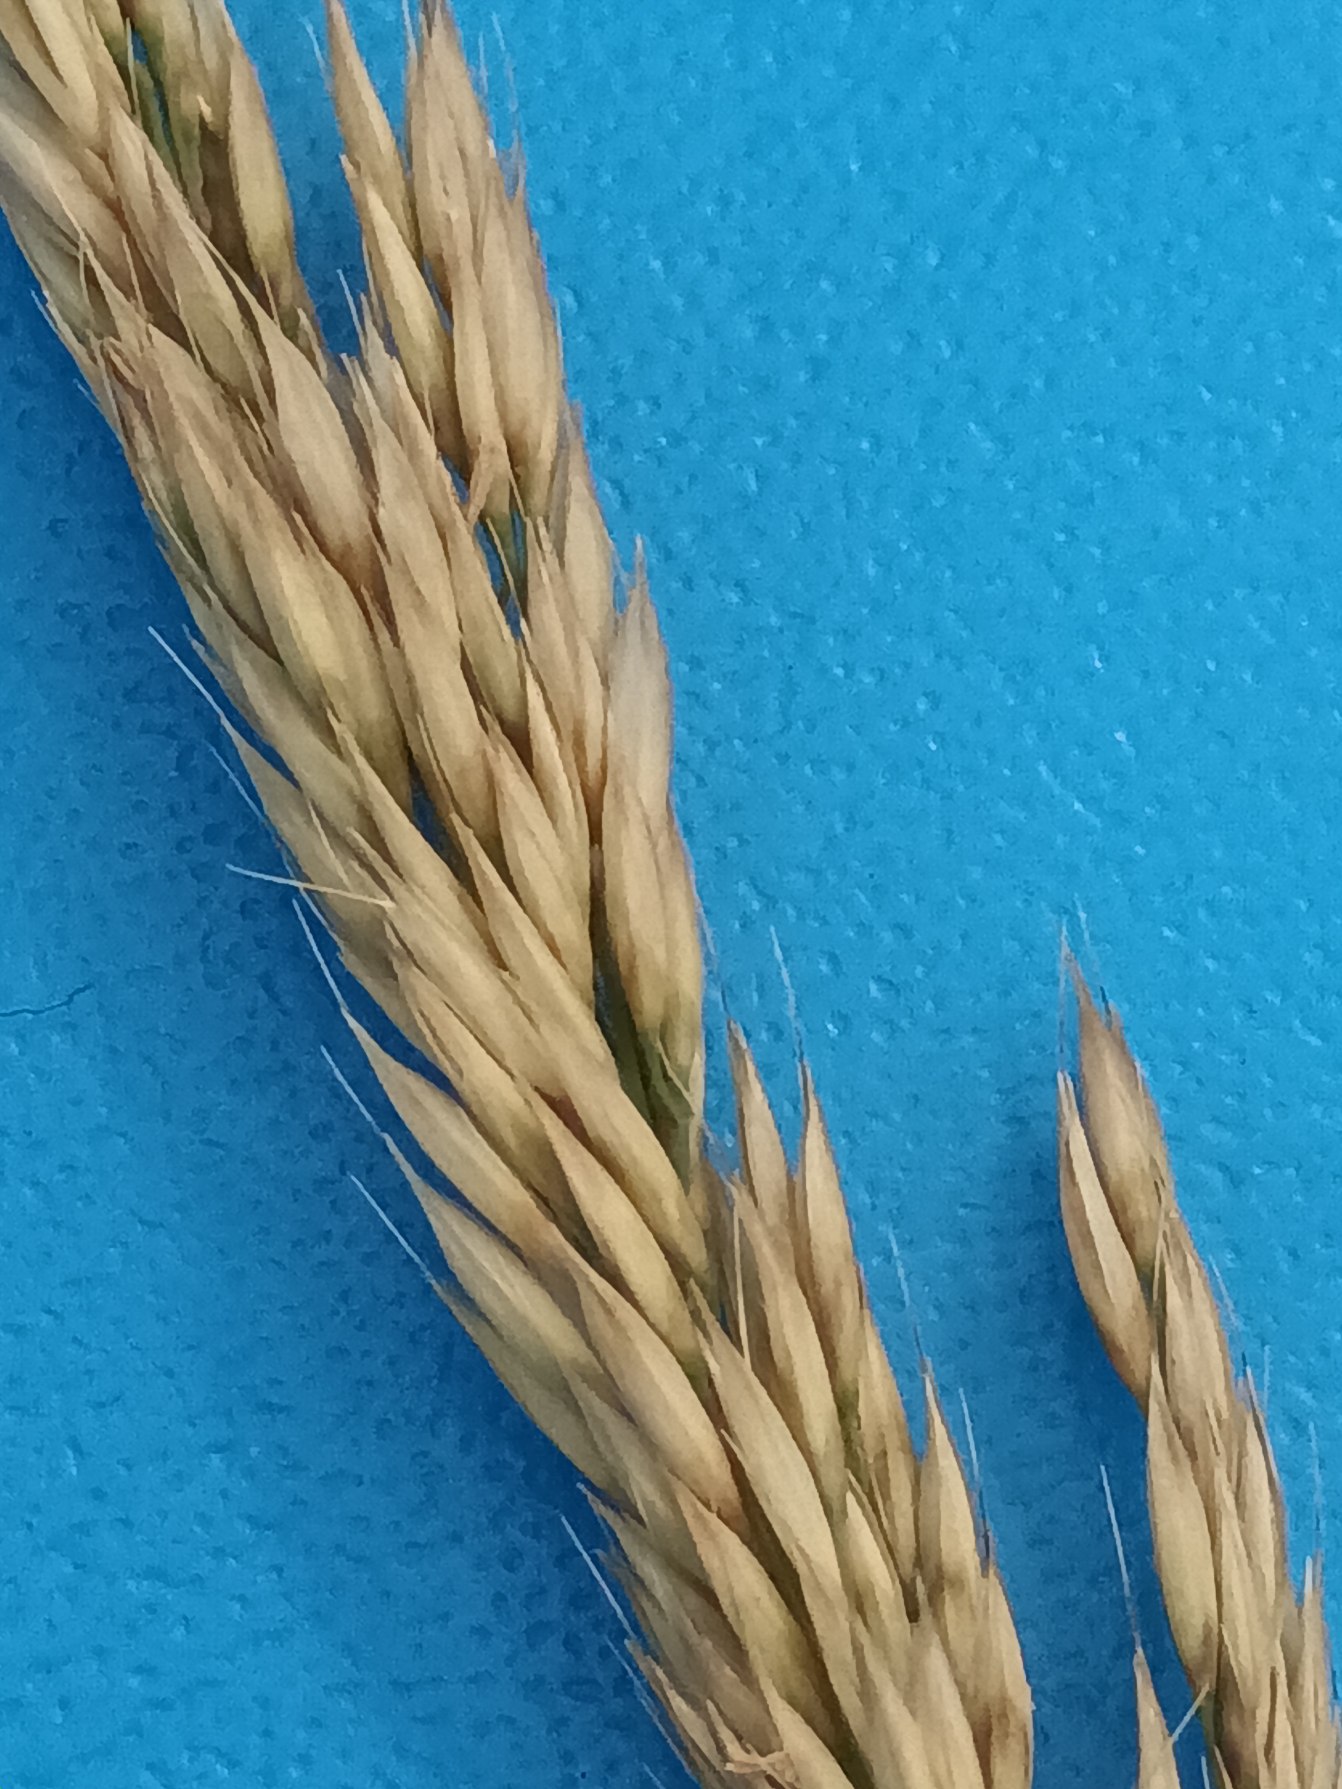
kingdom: Plantae
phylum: Tracheophyta
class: Liliopsida
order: Poales
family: Poaceae
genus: Calamagrostis
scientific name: Calamagrostis arundinacea
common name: Skov-rørhvene
